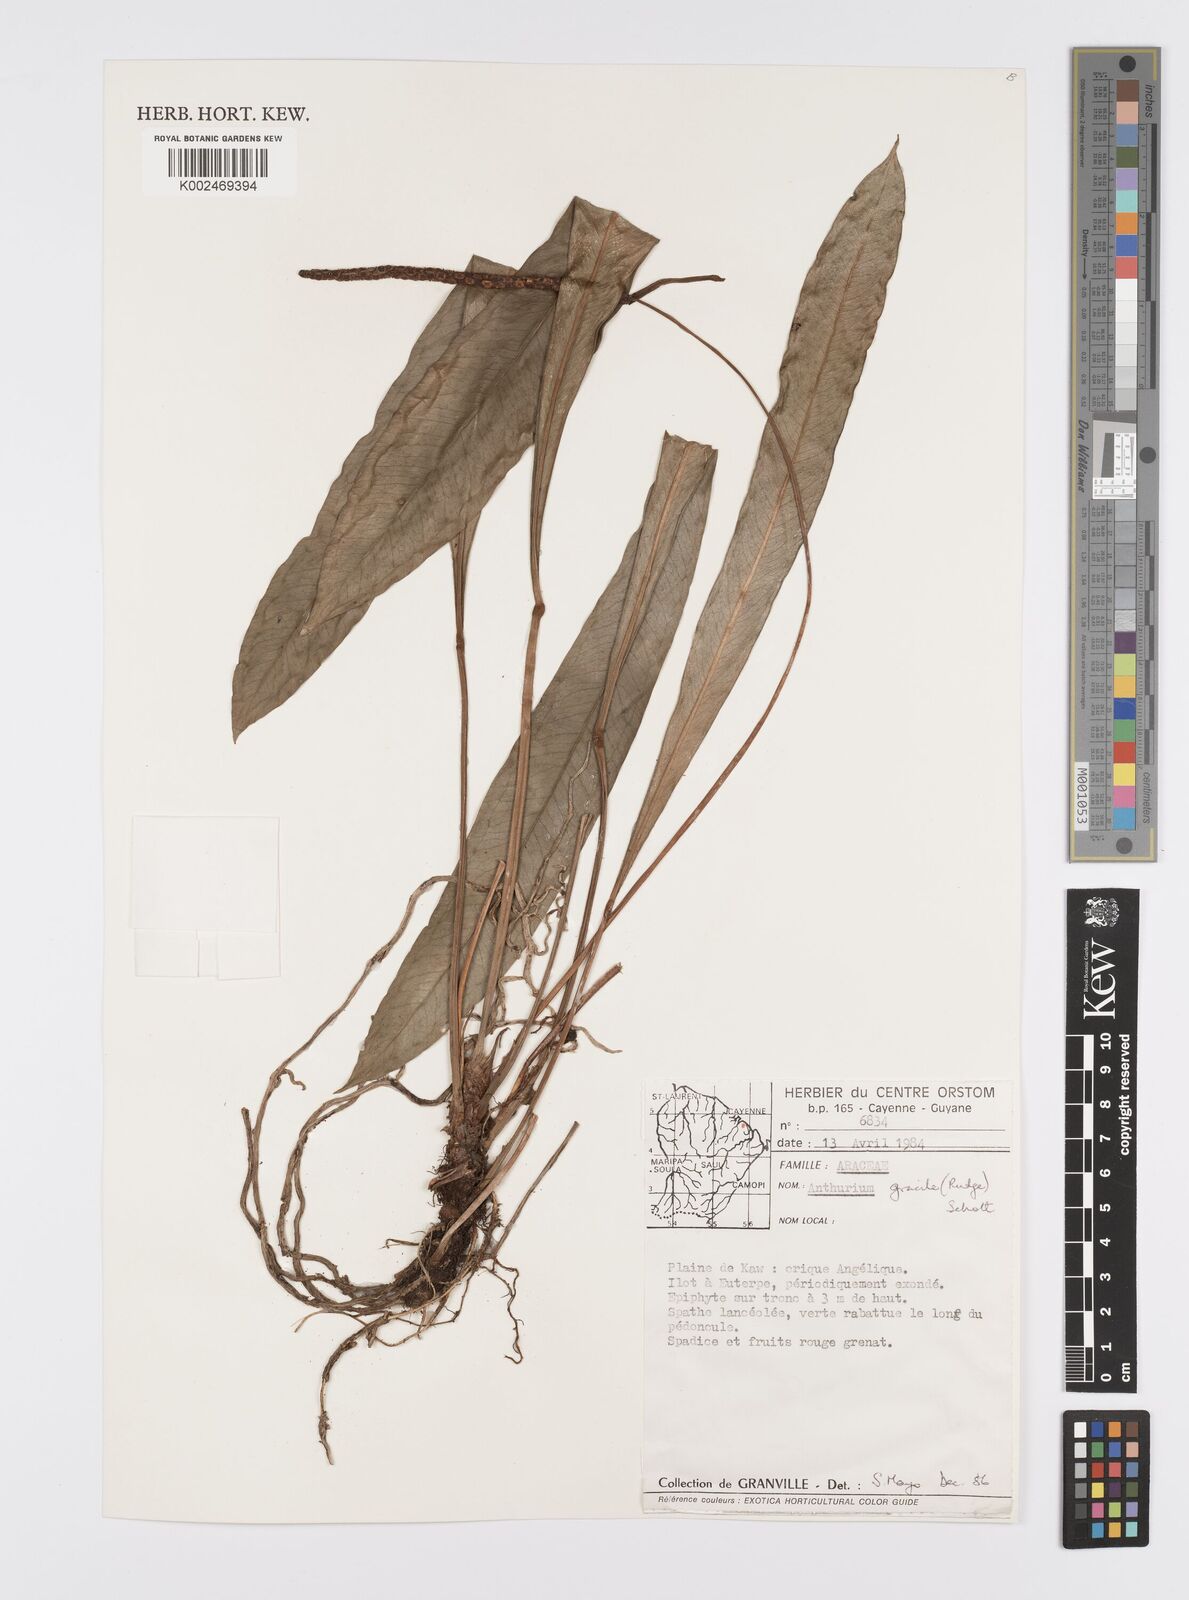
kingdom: Plantae
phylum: Tracheophyta
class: Liliopsida
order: Alismatales
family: Araceae
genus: Anthurium
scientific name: Anthurium gracile
